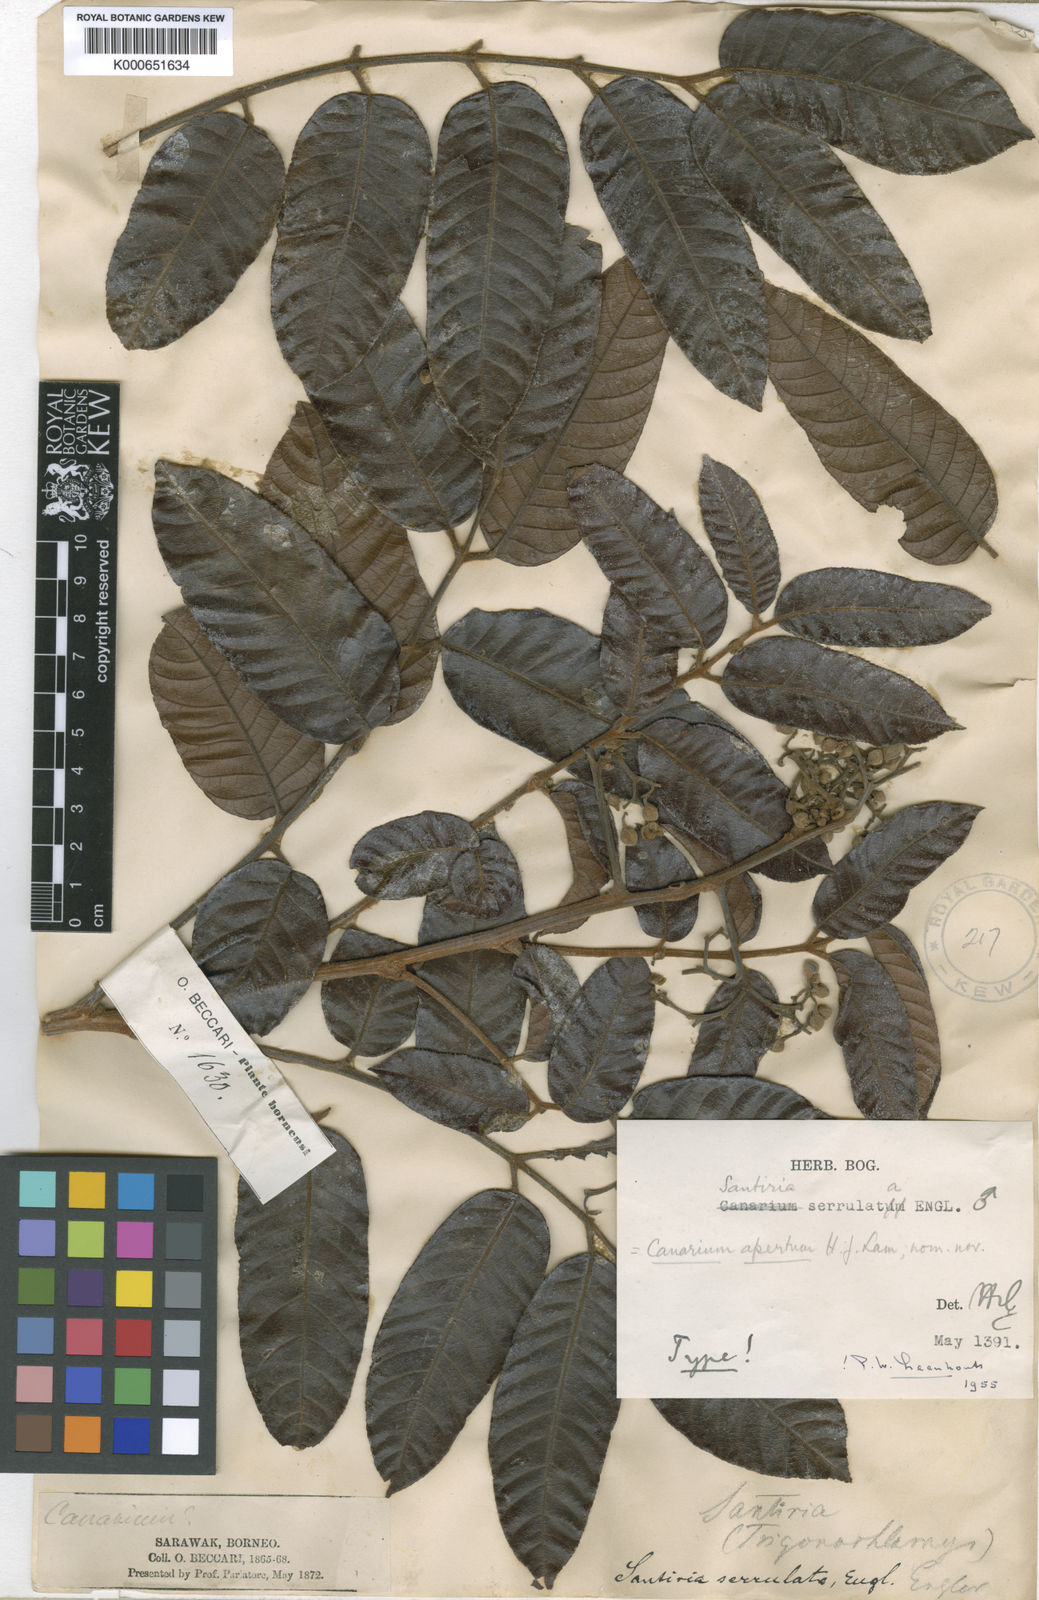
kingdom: Plantae
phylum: Tracheophyta
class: Magnoliopsida
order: Sapindales
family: Burseraceae
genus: Canarium
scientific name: Canarium apertum
